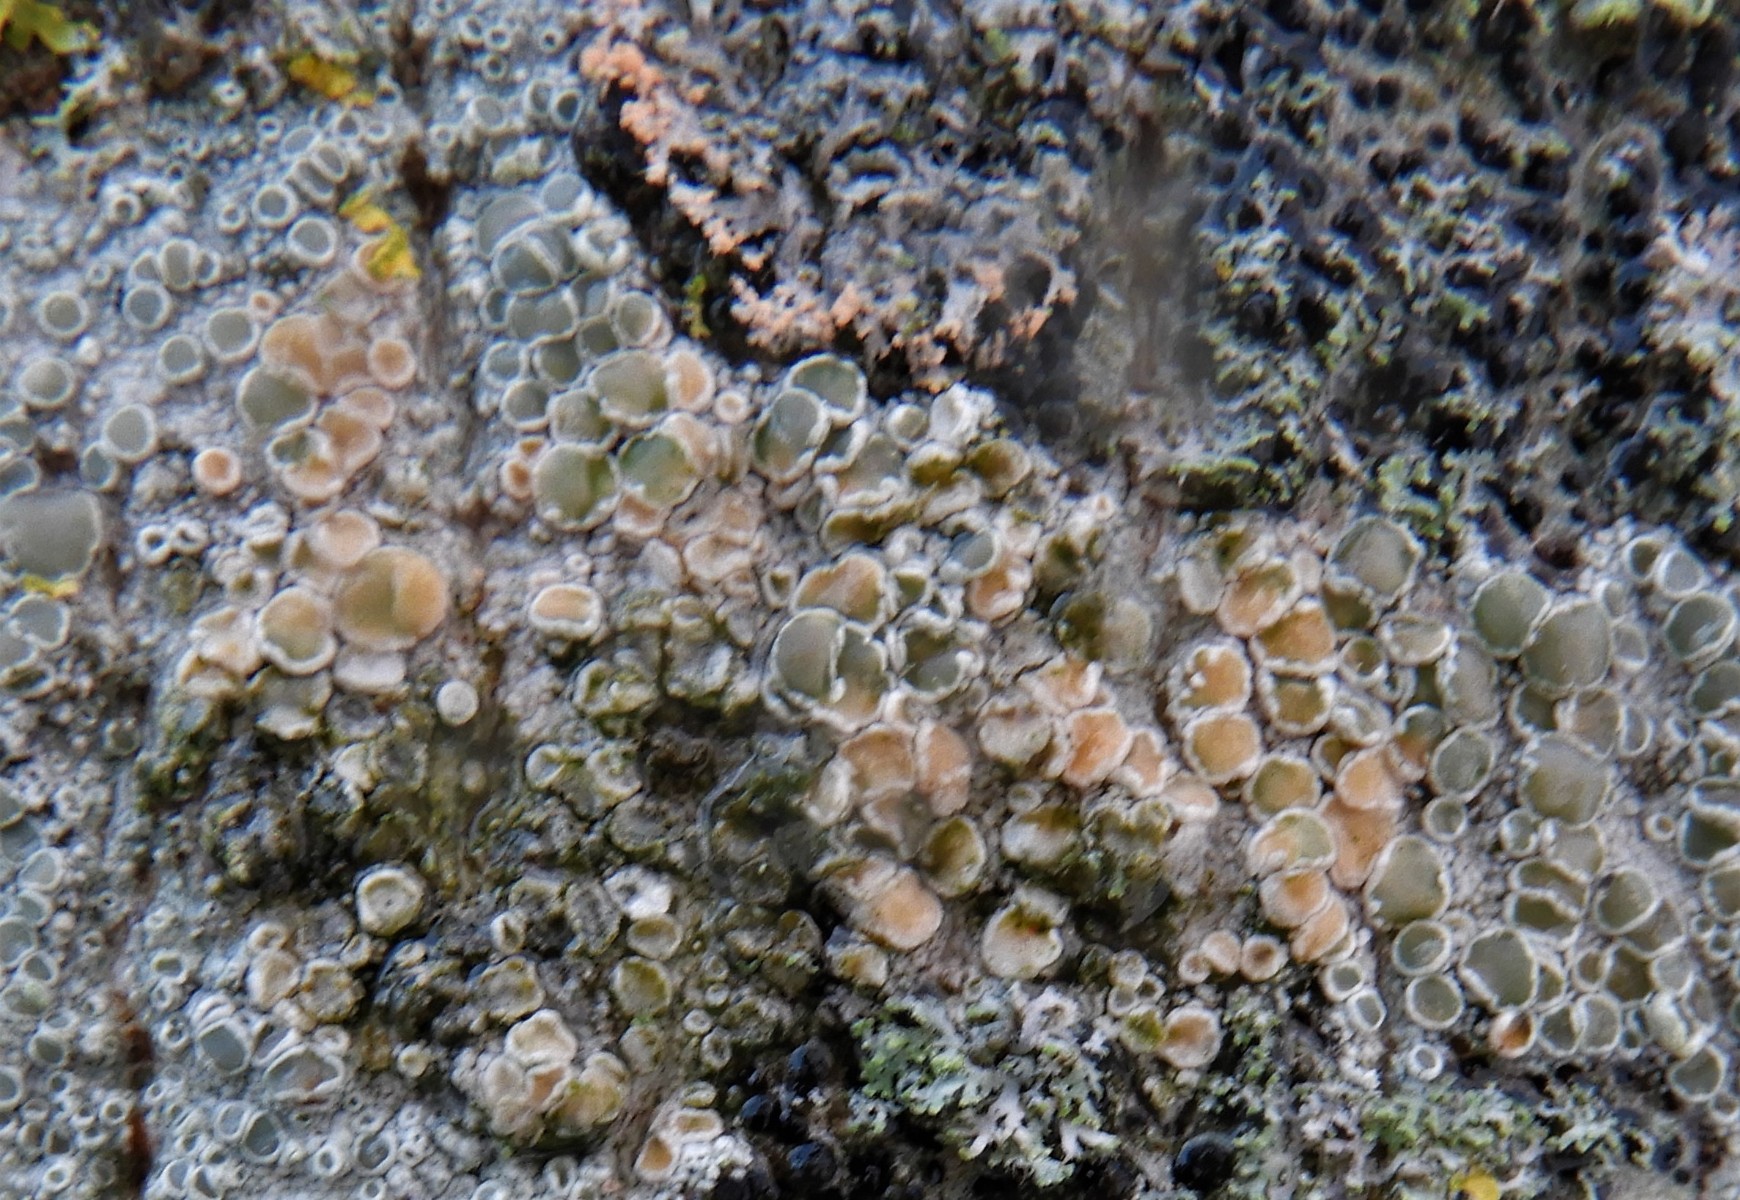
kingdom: Fungi
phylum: Basidiomycota
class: Agaricomycetes
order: Corticiales
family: Corticiaceae
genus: Erythricium
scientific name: Erythricium aurantiacum
